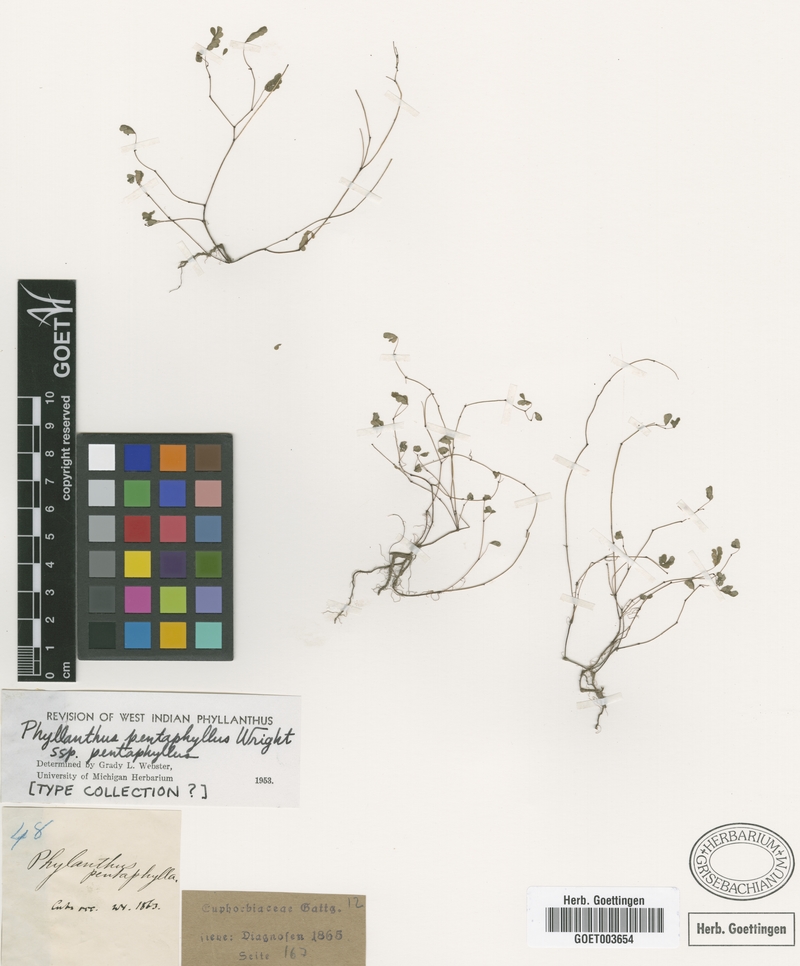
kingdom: Plantae
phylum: Tracheophyta
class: Magnoliopsida
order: Malpighiales
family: Phyllanthaceae
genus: Phyllanthus
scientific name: Phyllanthus pentaphyllus
